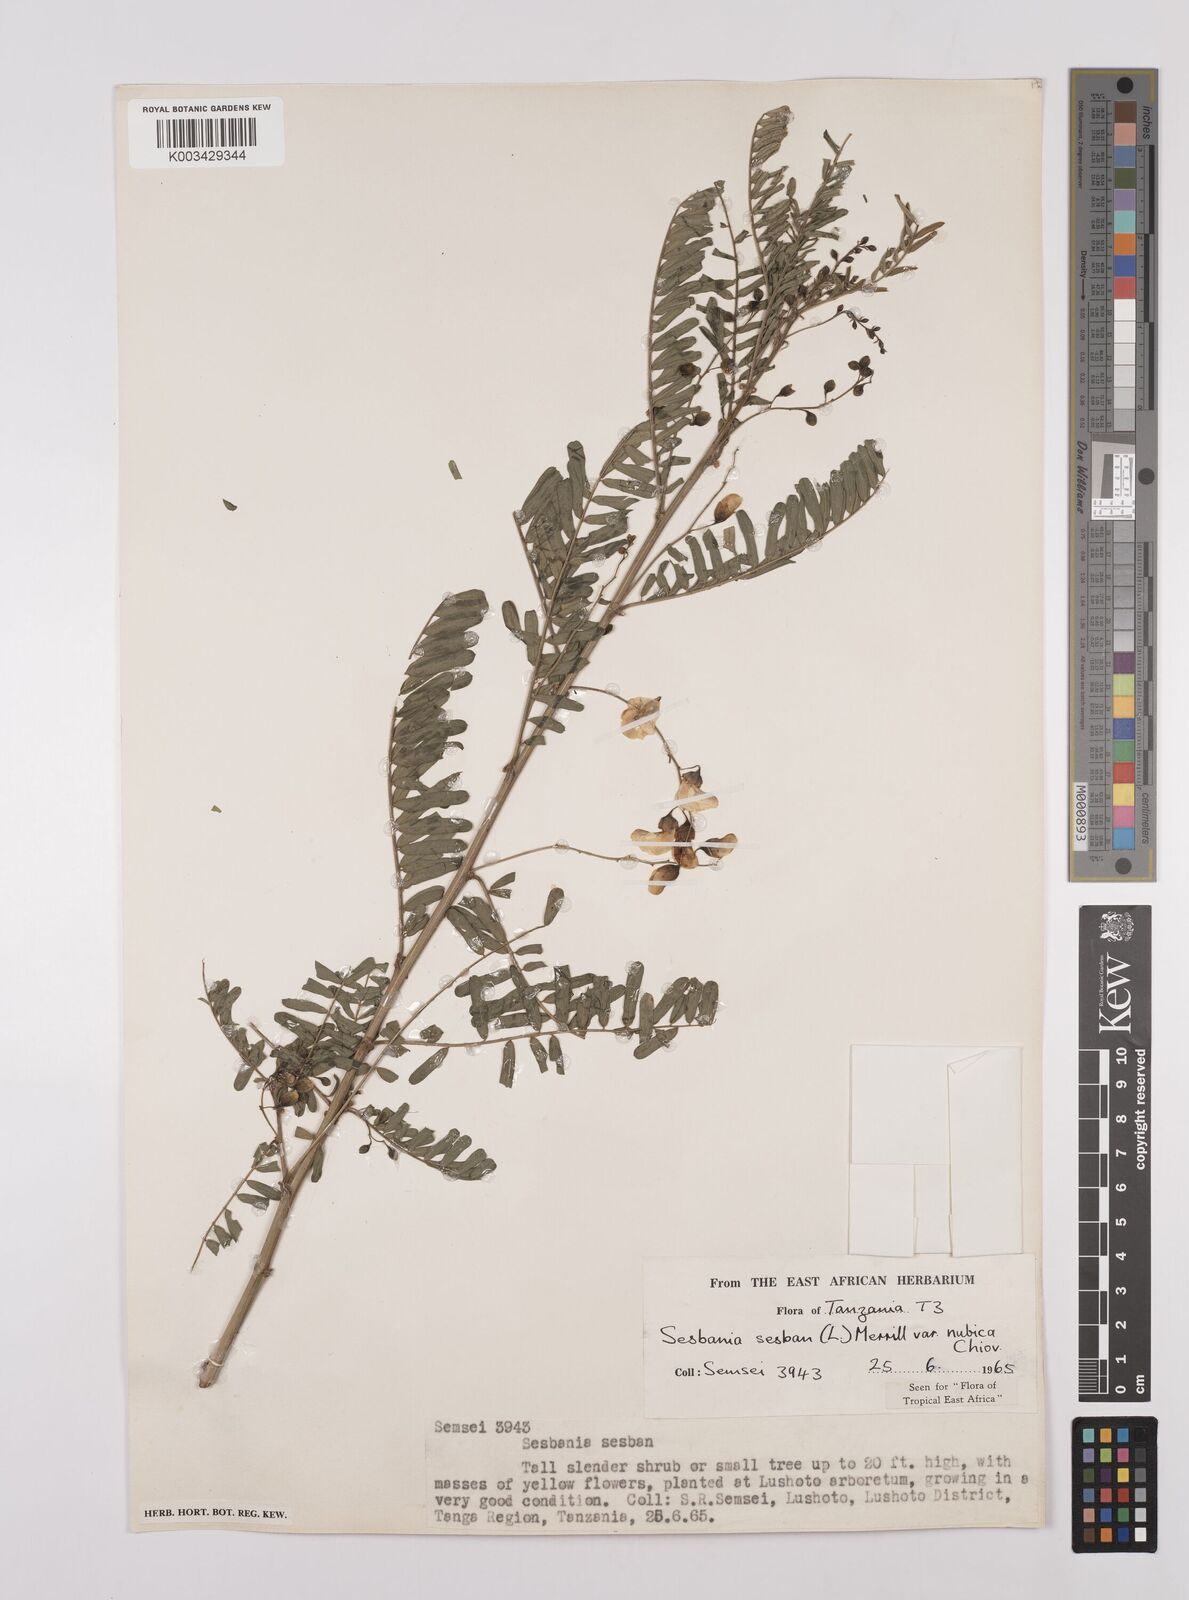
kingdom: Plantae
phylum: Tracheophyta
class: Magnoliopsida
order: Fabales
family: Fabaceae
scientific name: Fabaceae
